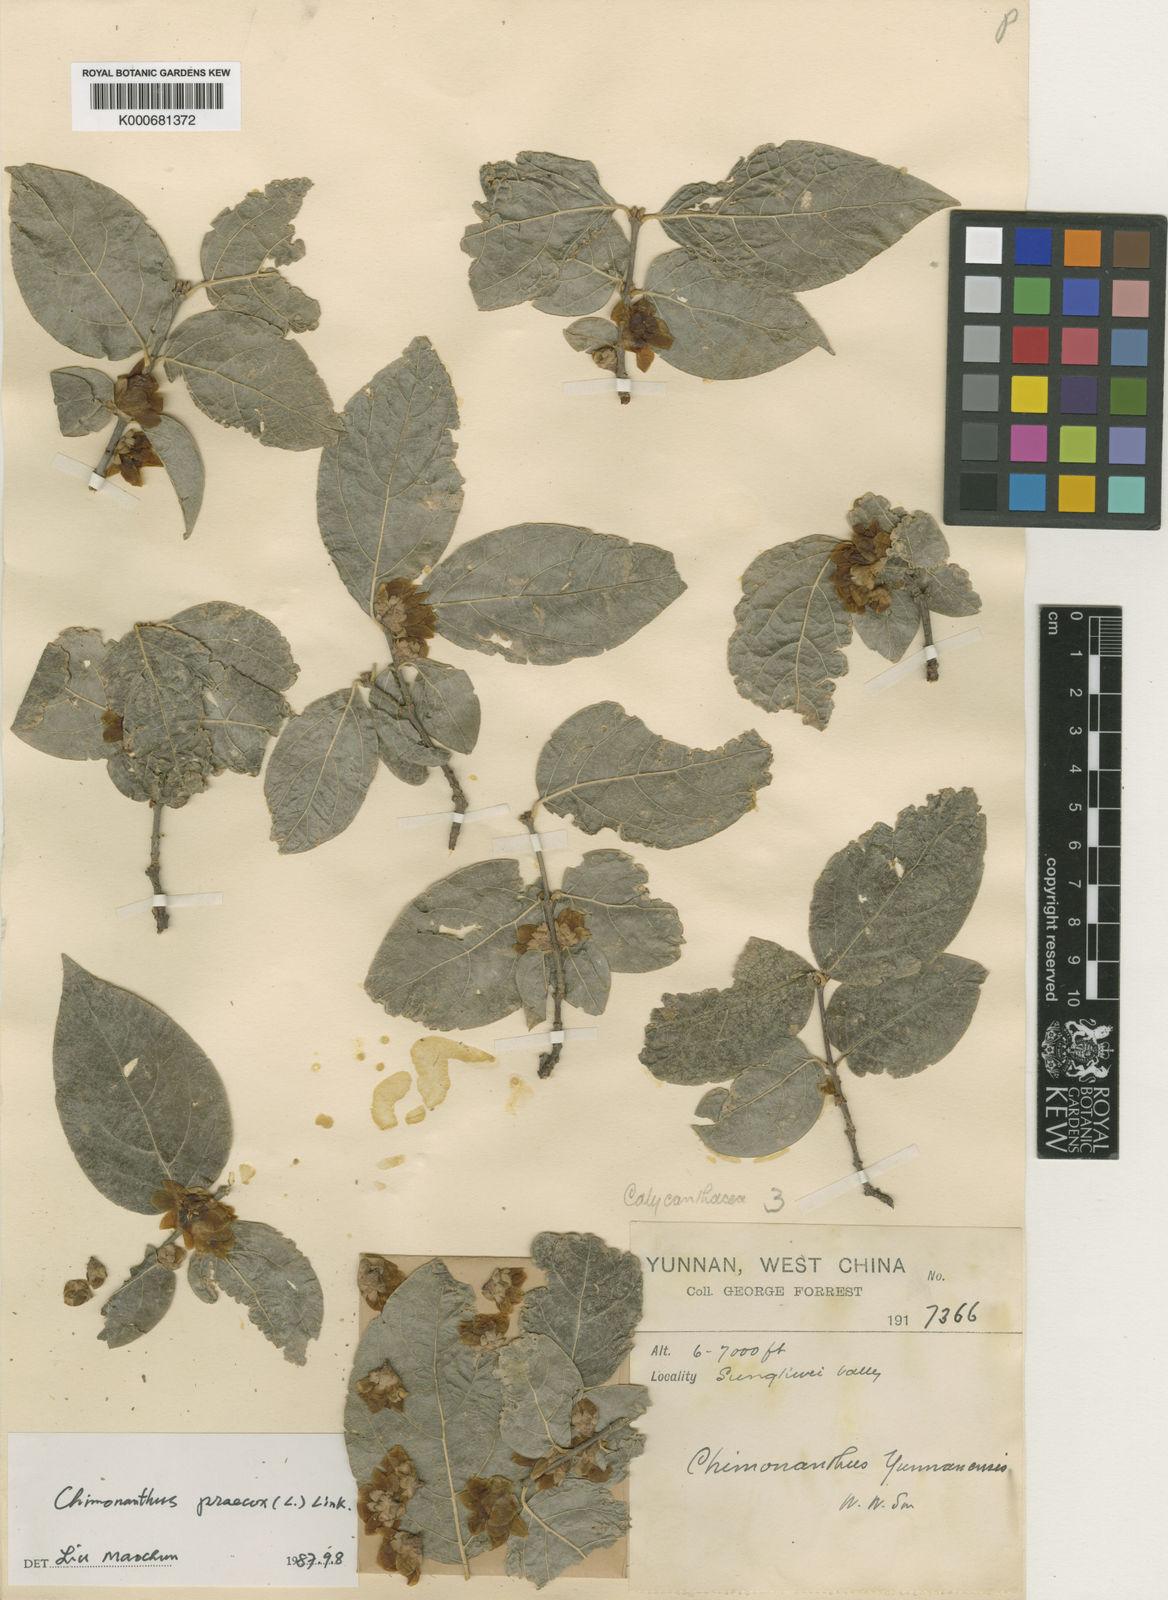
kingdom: Plantae
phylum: Tracheophyta
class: Magnoliopsida
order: Laurales
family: Calycanthaceae
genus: Chimonanthus
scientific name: Chimonanthus praecox
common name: Wintersweet
